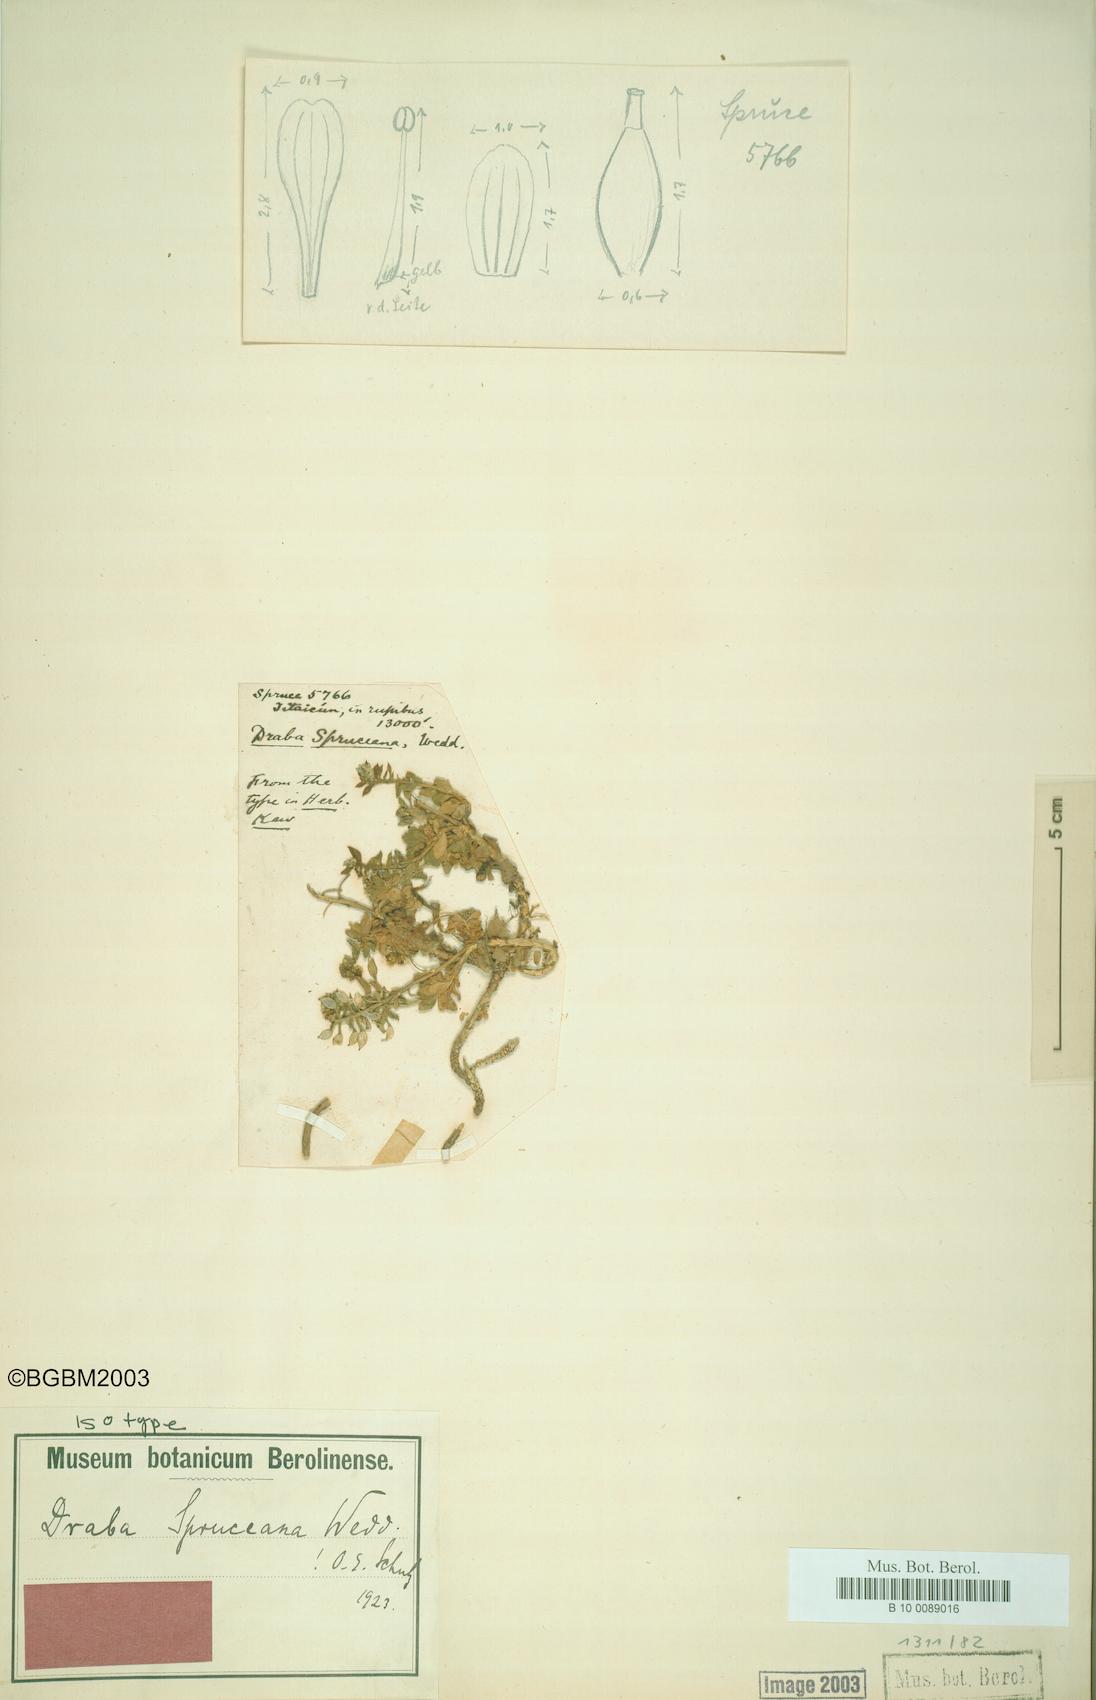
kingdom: Plantae
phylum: Tracheophyta
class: Magnoliopsida
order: Brassicales
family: Brassicaceae
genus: Draba
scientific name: Draba spruceana
